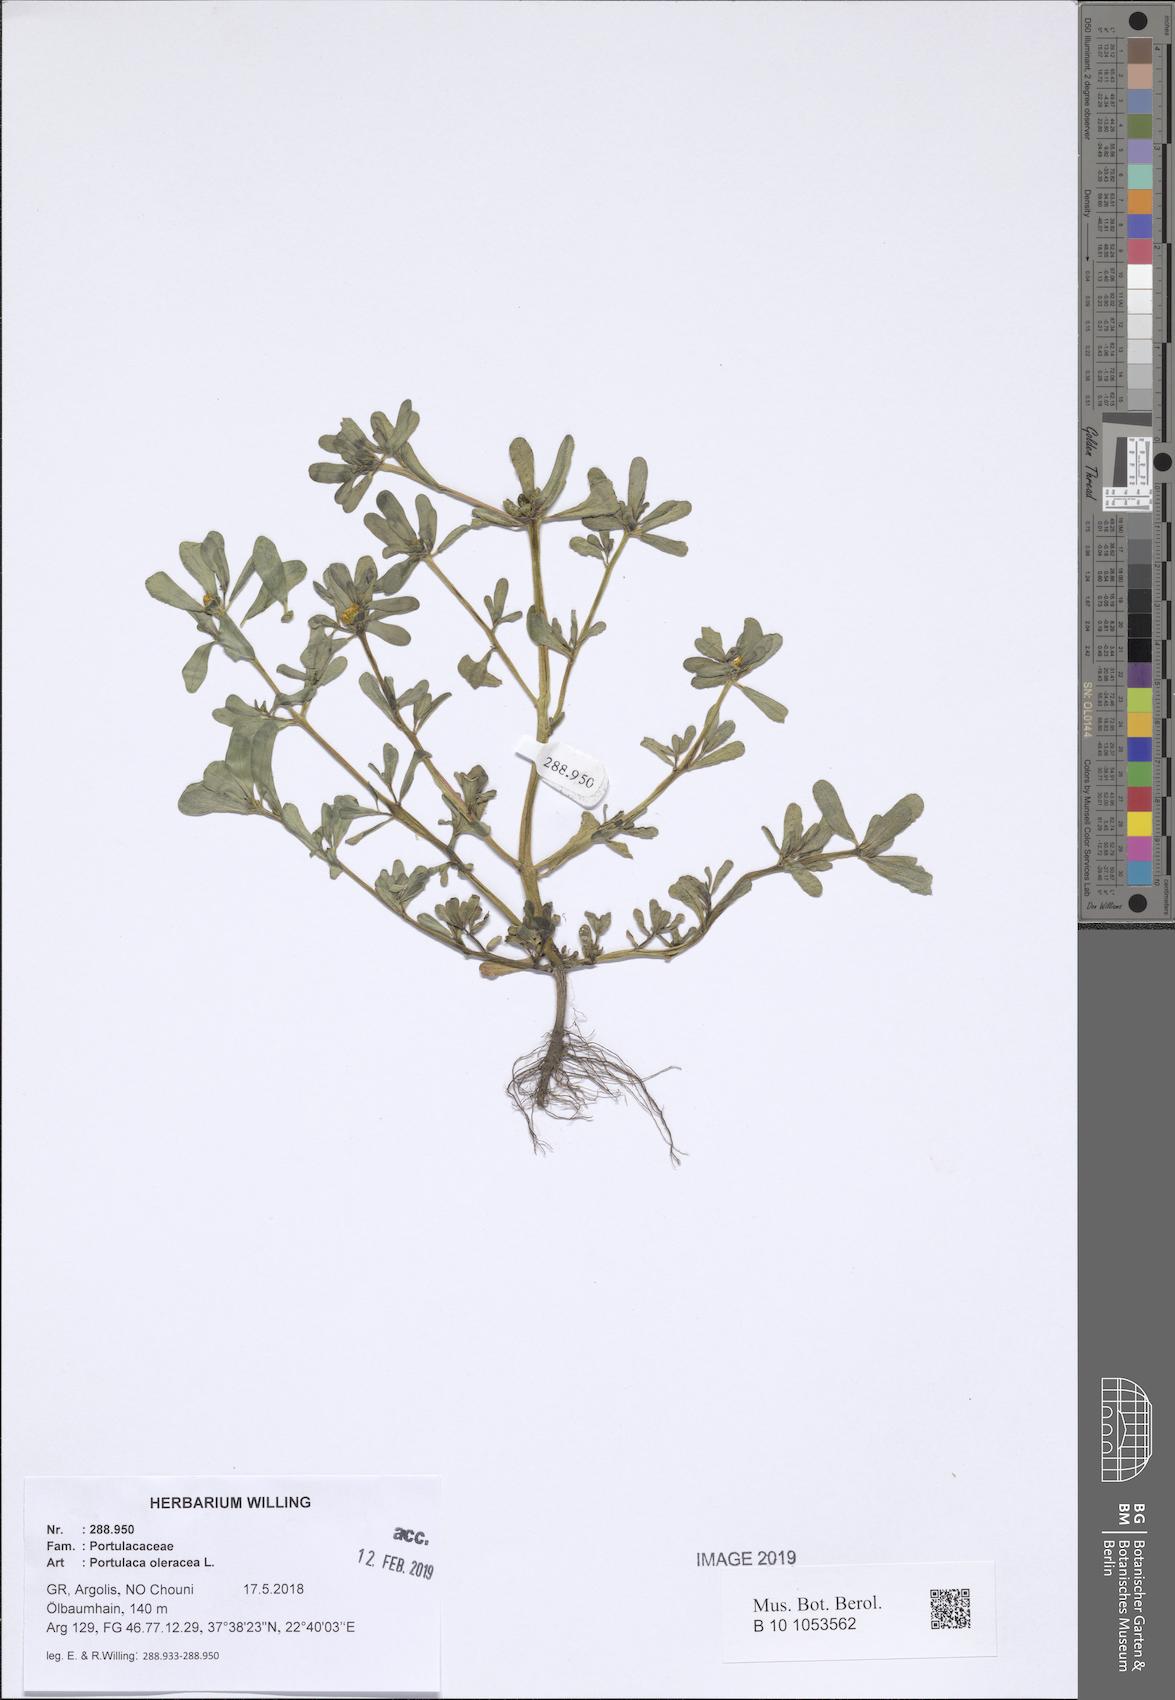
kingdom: Plantae
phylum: Tracheophyta
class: Magnoliopsida
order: Caryophyllales
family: Portulacaceae
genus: Portulaca
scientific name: Portulaca oleracea
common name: Common purslane
